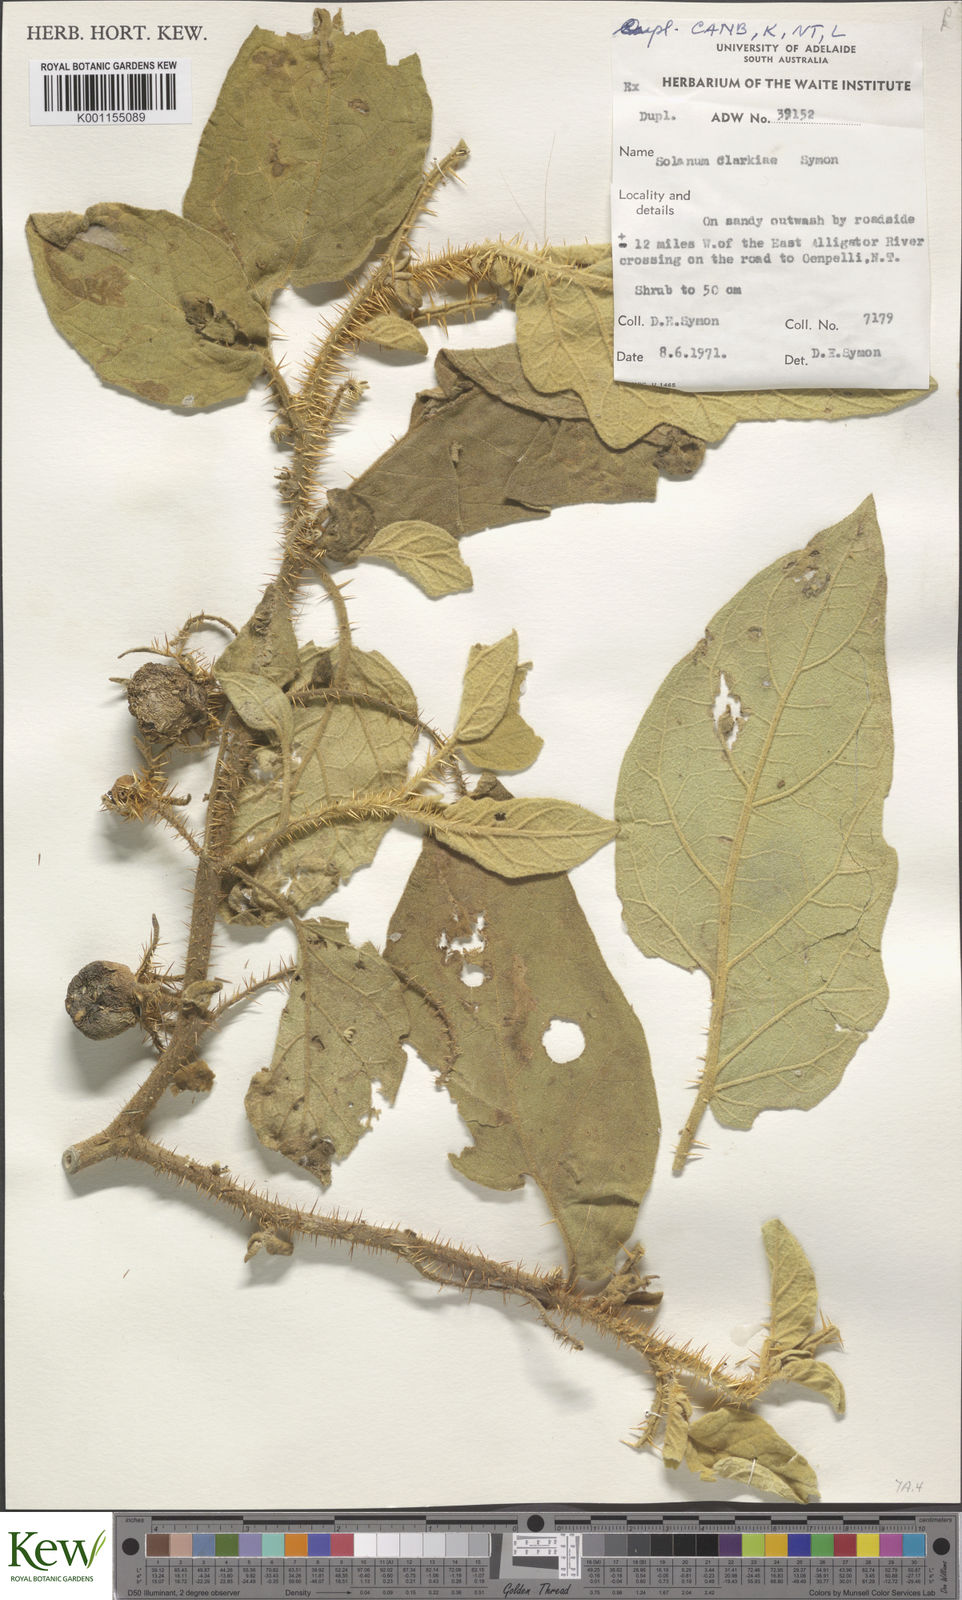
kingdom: Plantae
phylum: Tracheophyta
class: Magnoliopsida
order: Solanales
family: Solanaceae
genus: Solanum
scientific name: Solanum clarkiae
